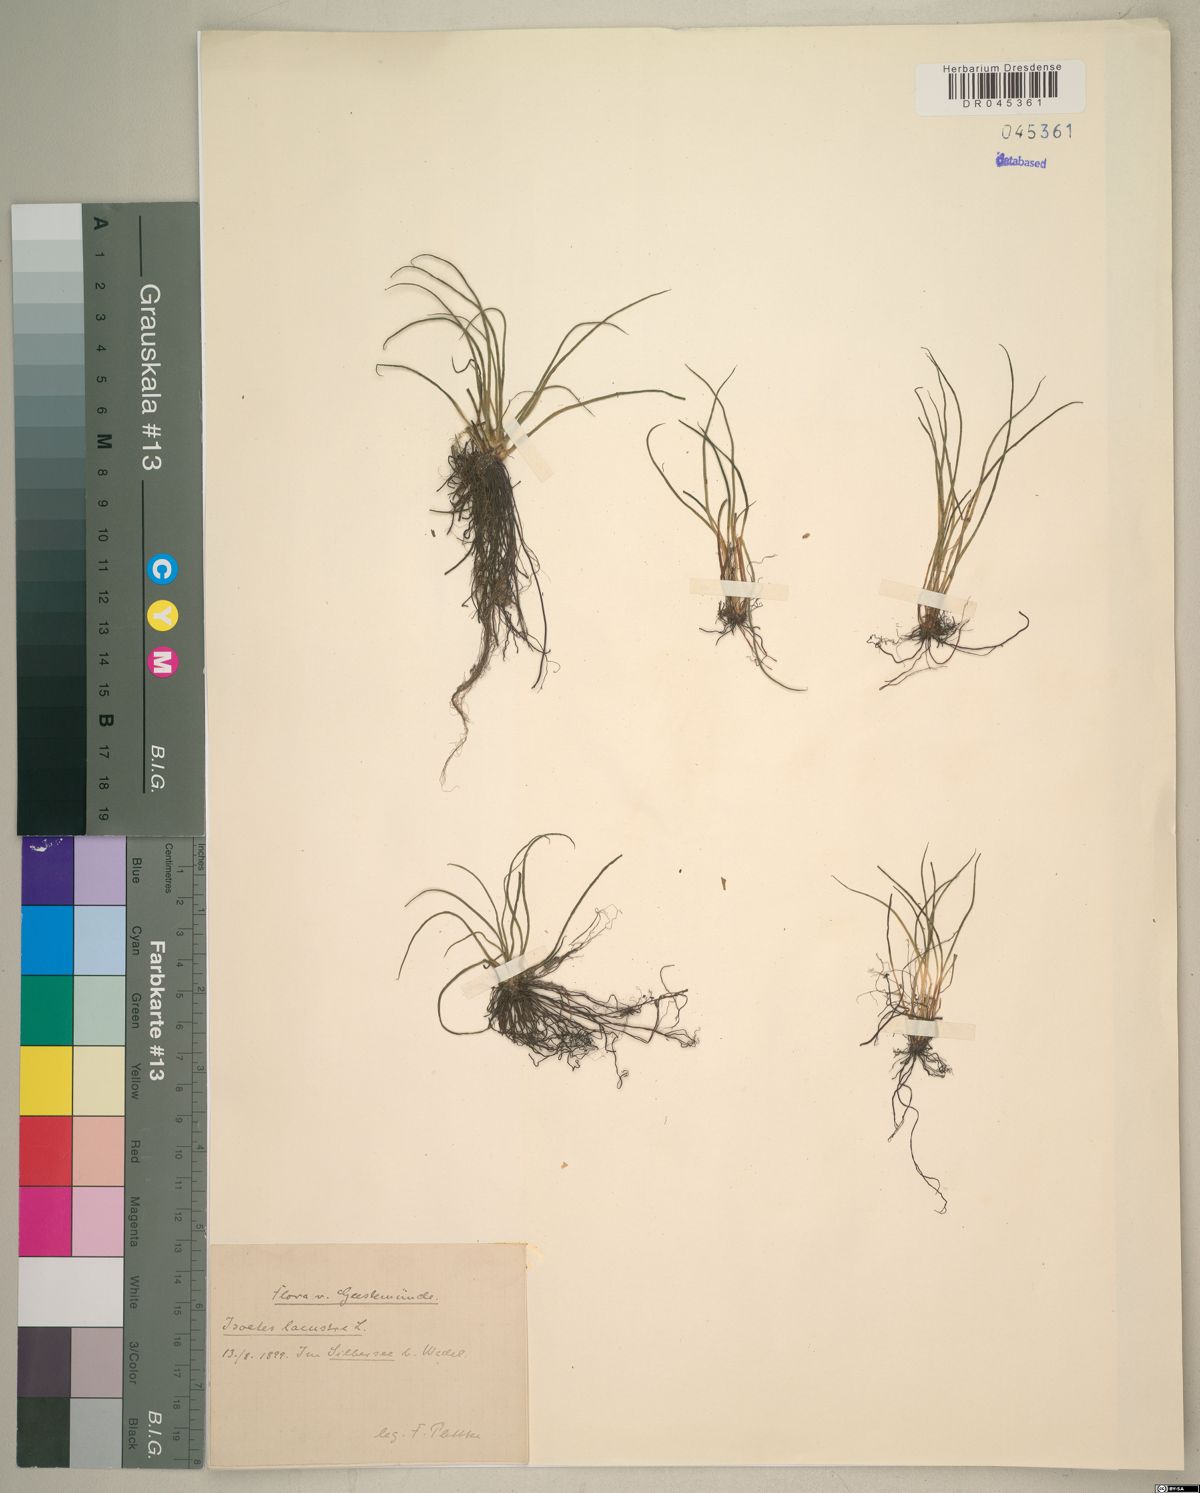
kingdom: Plantae
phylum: Tracheophyta
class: Lycopodiopsida
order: Isoetales
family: Isoetaceae
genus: Isoetes
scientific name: Isoetes lacustris
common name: Common quillwort
